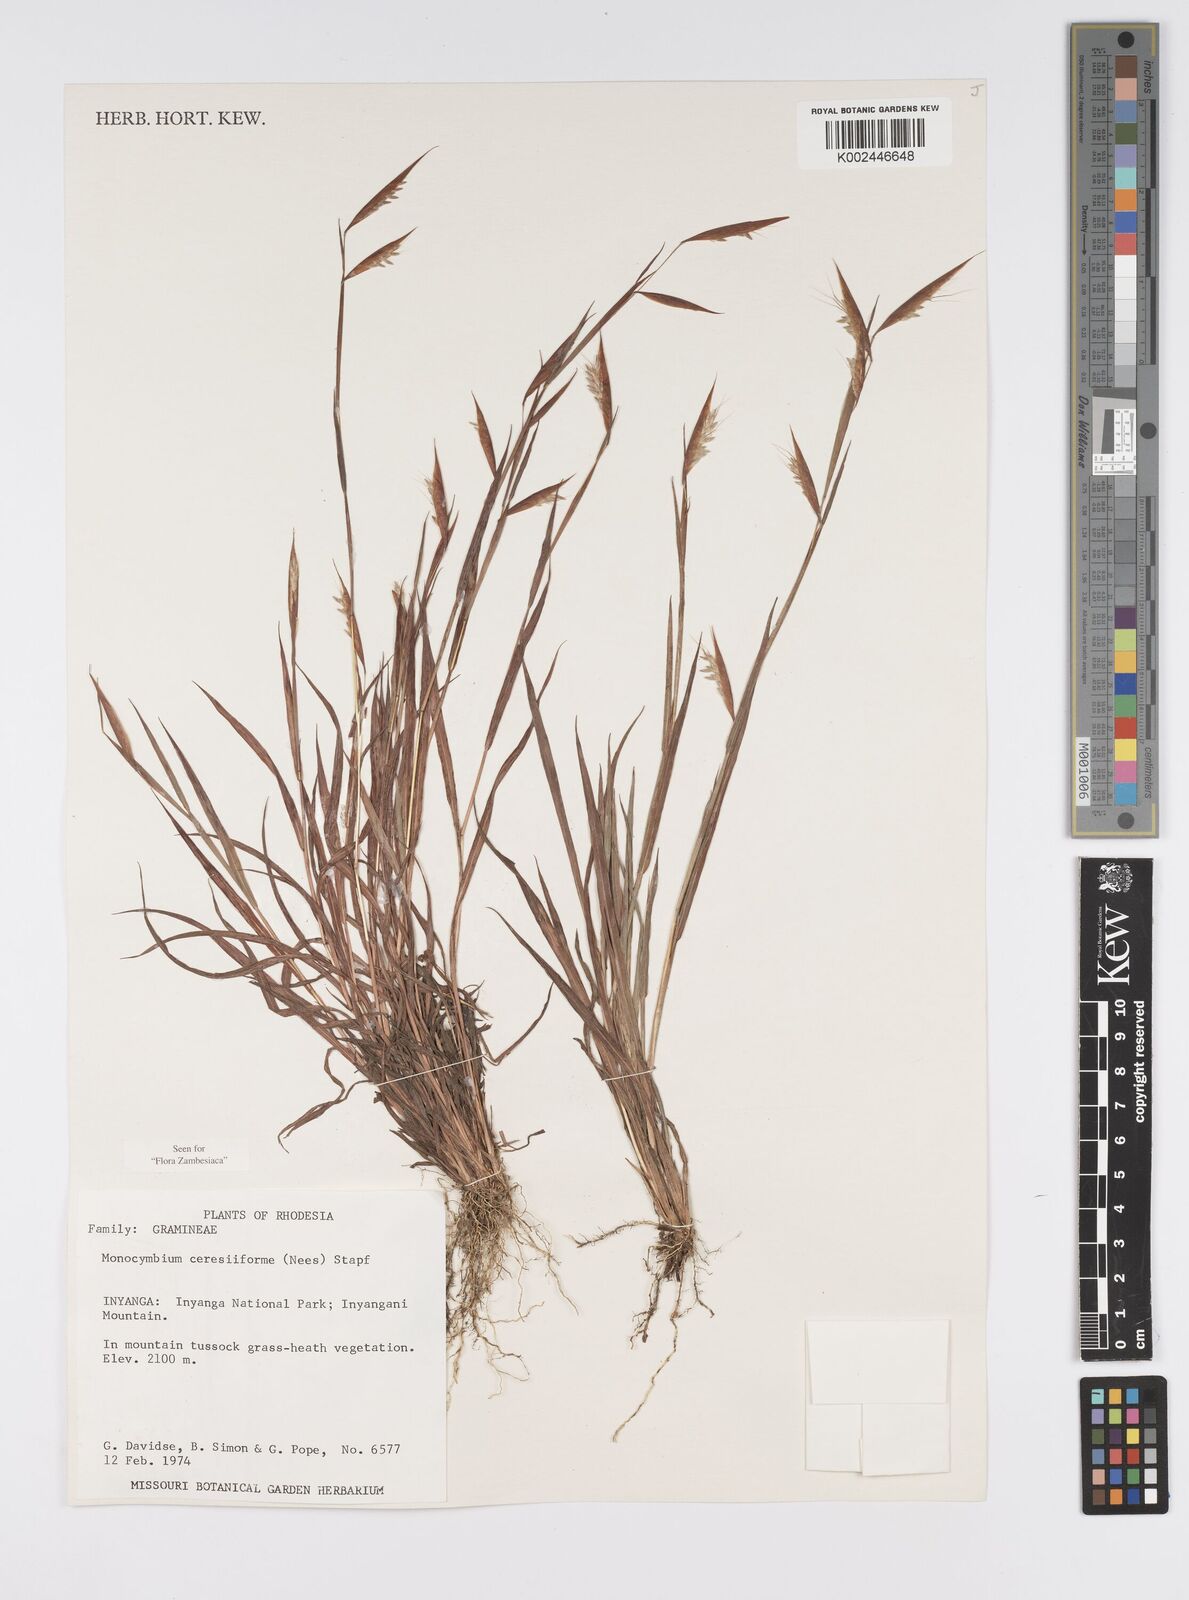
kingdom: Plantae
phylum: Tracheophyta
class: Liliopsida
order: Poales
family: Poaceae
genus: Monocymbium
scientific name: Monocymbium ceresiiforme
